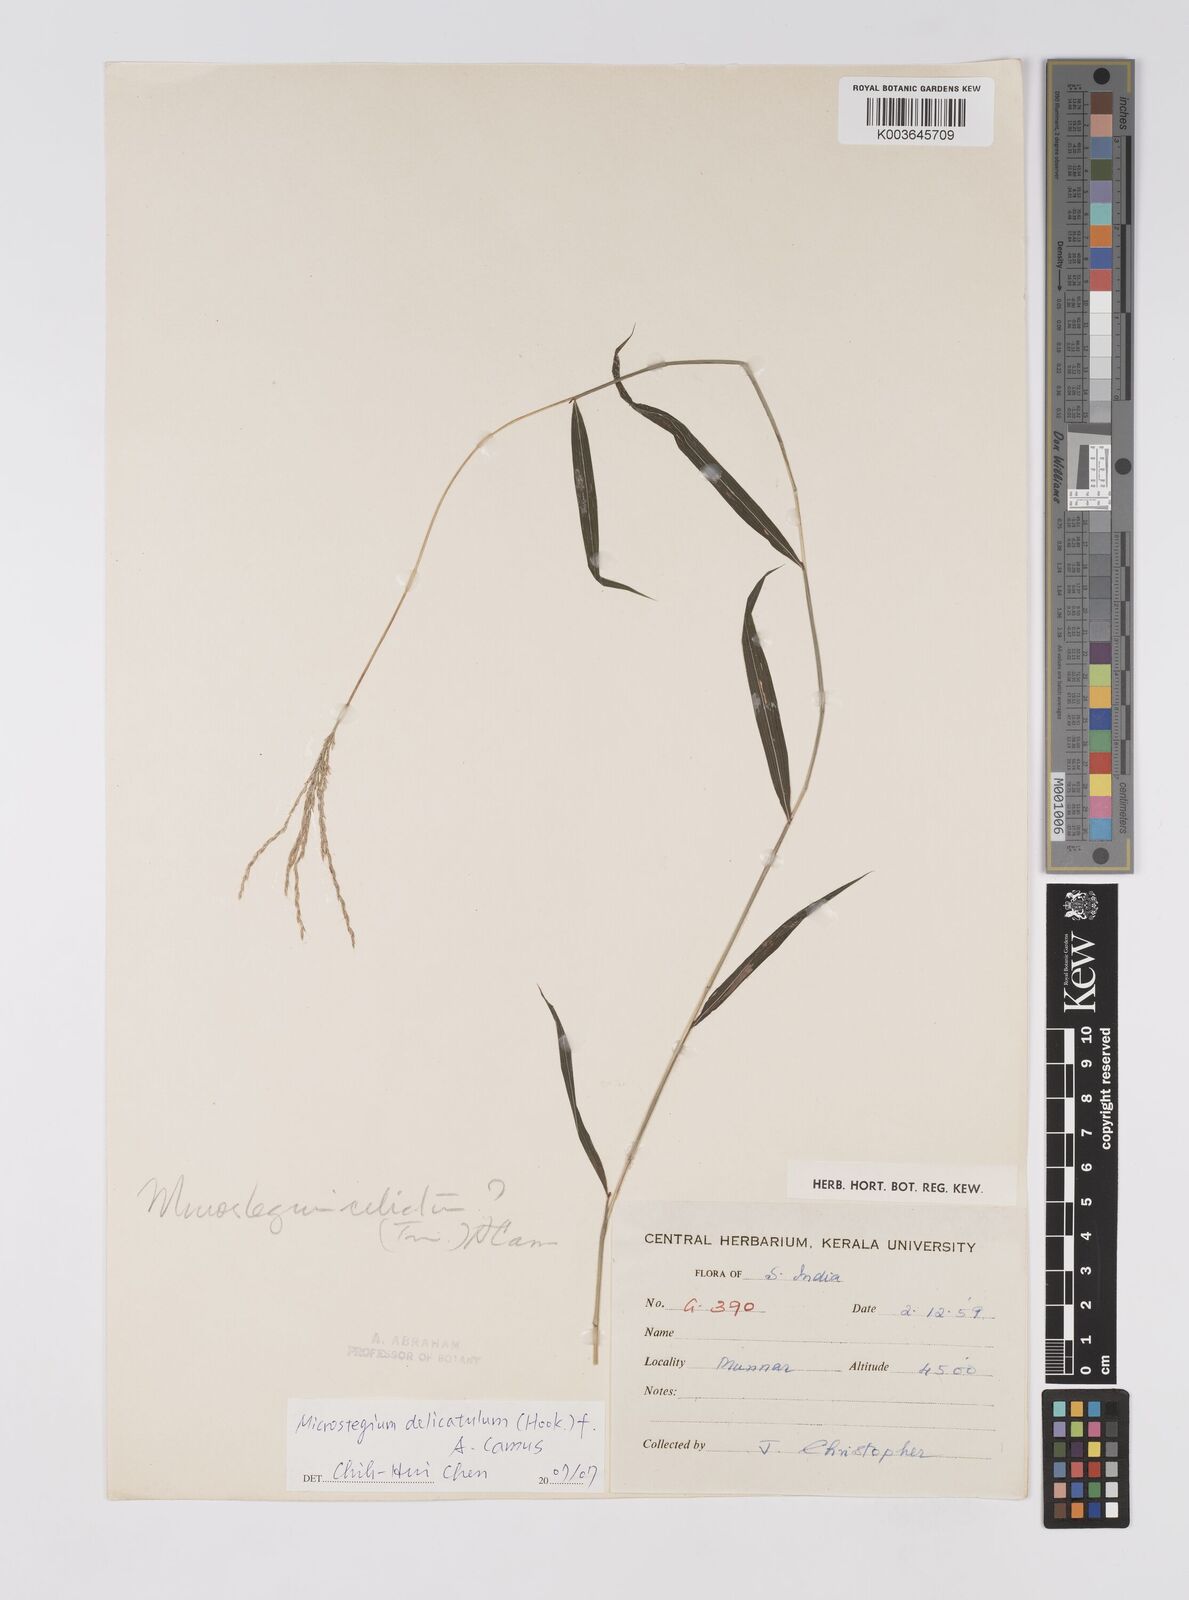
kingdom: Plantae
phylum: Tracheophyta
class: Liliopsida
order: Poales
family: Poaceae
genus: Microstegium
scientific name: Microstegium delicatulum
